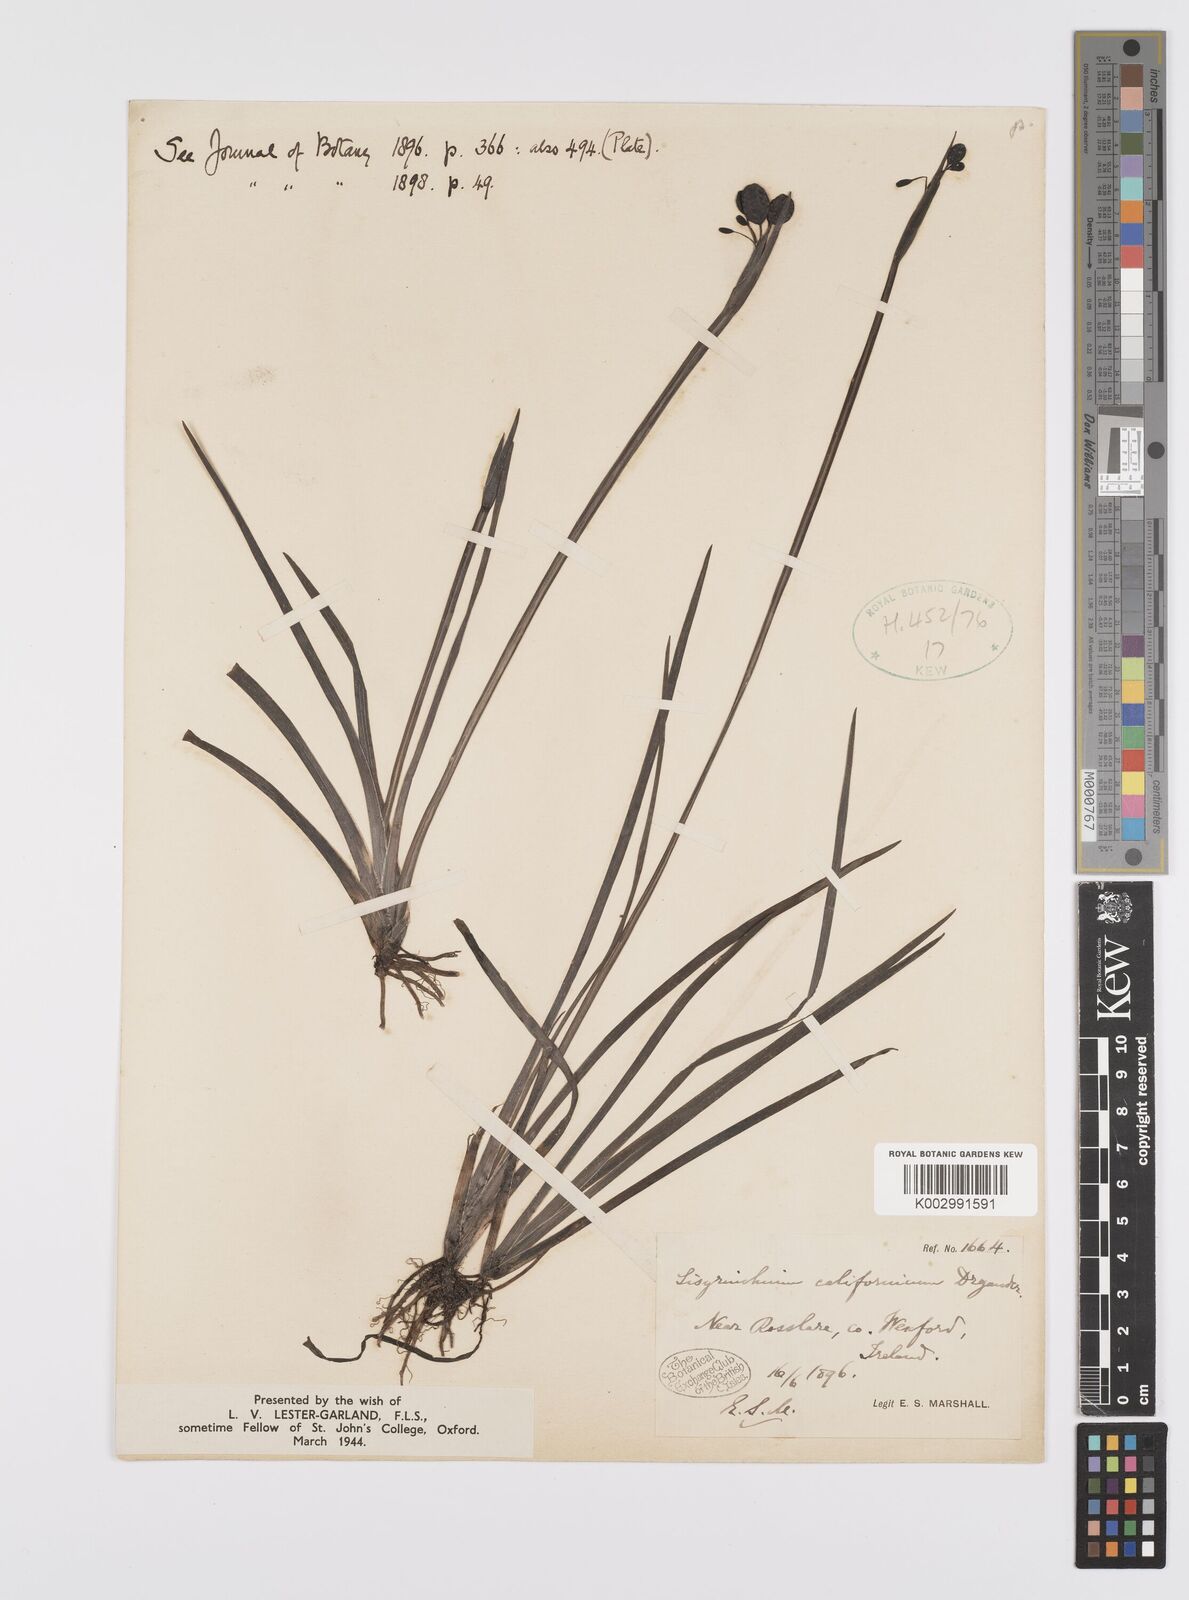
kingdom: Plantae
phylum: Tracheophyta
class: Liliopsida
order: Asparagales
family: Iridaceae
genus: Sisyrinchium
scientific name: Sisyrinchium californicum
